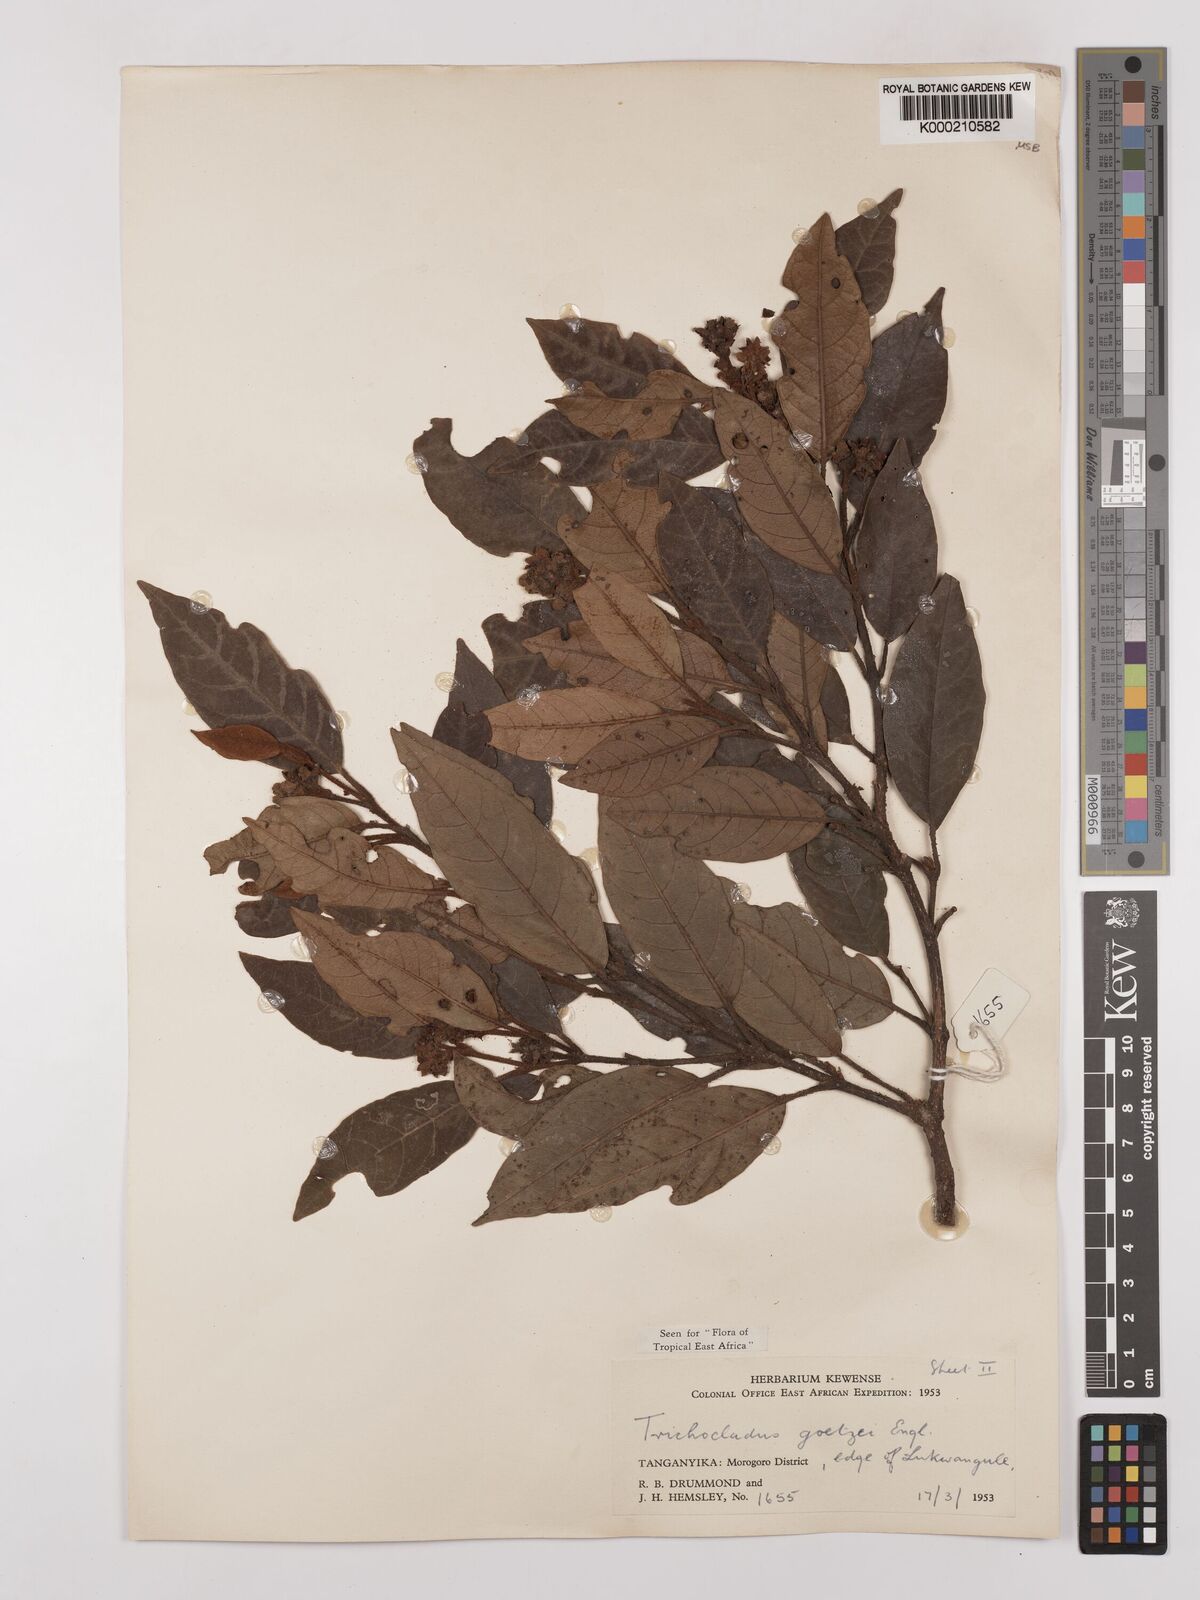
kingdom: Plantae
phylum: Tracheophyta
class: Magnoliopsida
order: Saxifragales
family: Hamamelidaceae
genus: Trichocladus
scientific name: Trichocladus goetzei
